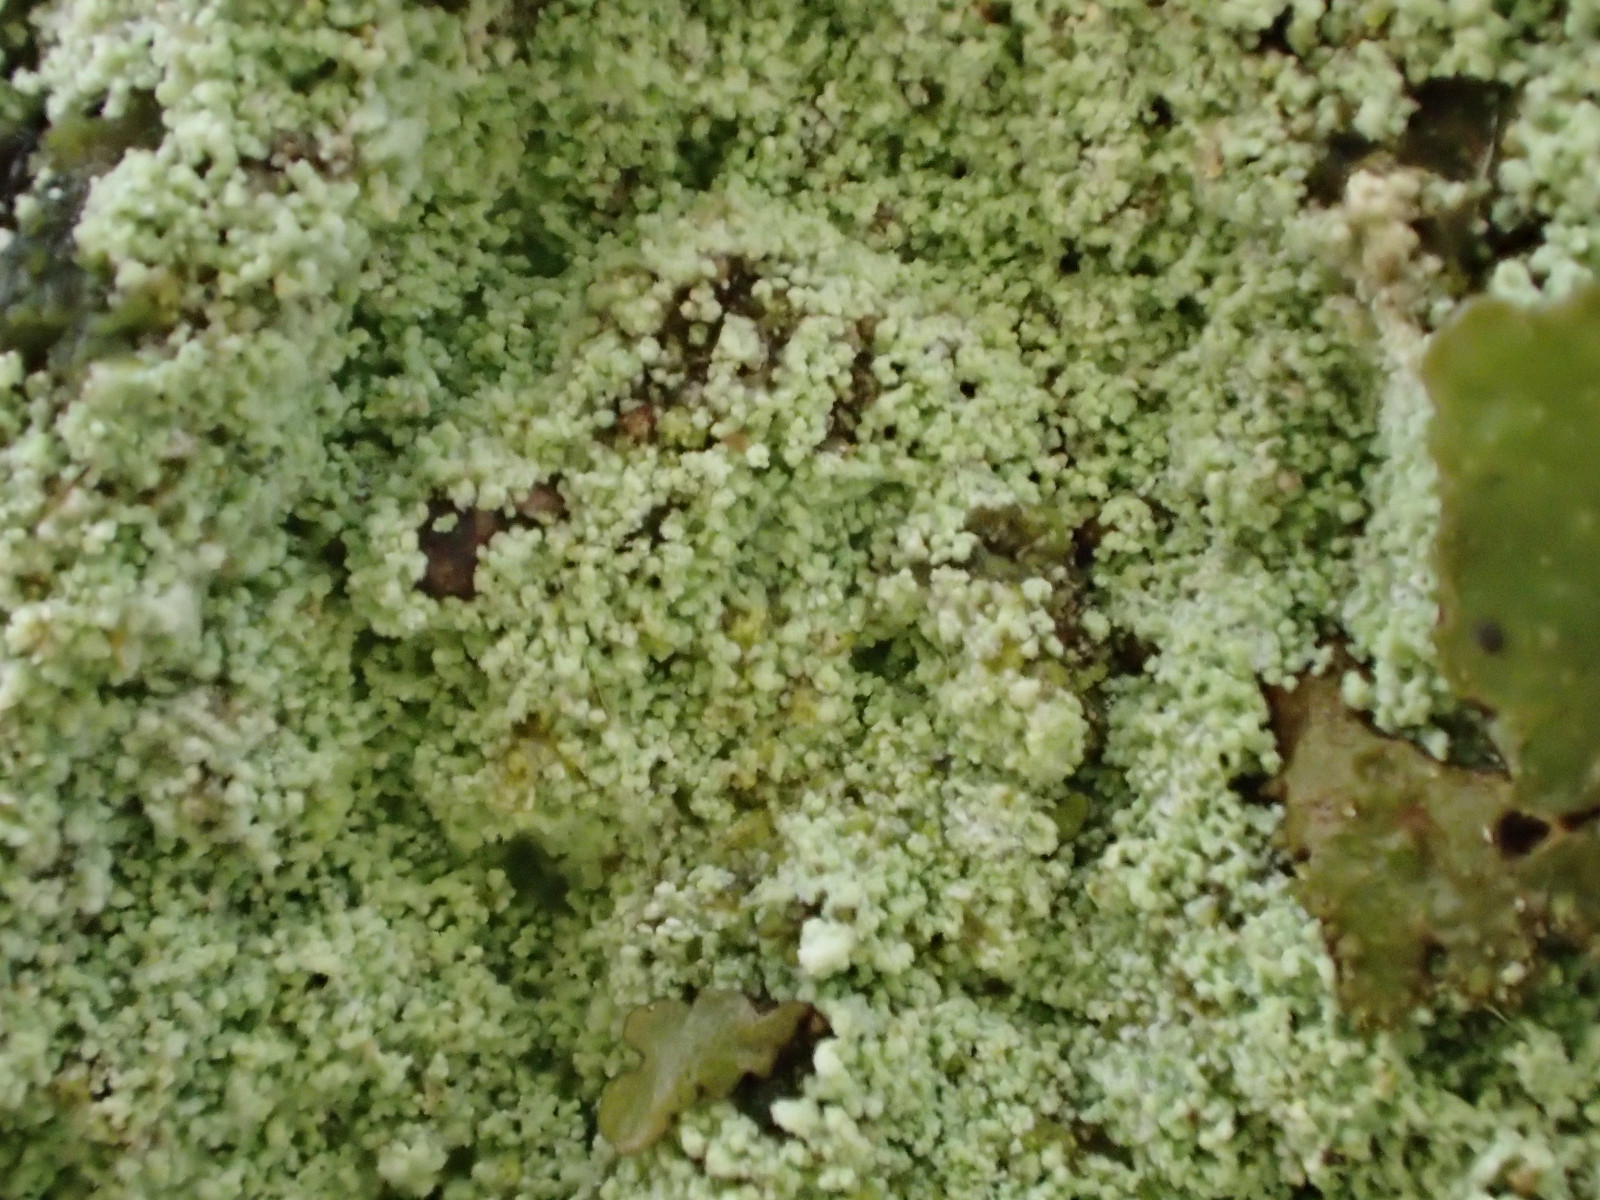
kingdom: Fungi
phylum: Ascomycota
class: Lecanoromycetes
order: Lecanorales
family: Stereocaulaceae
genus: Lepraria
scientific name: Lepraria lobificans
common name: grøn støvlav
